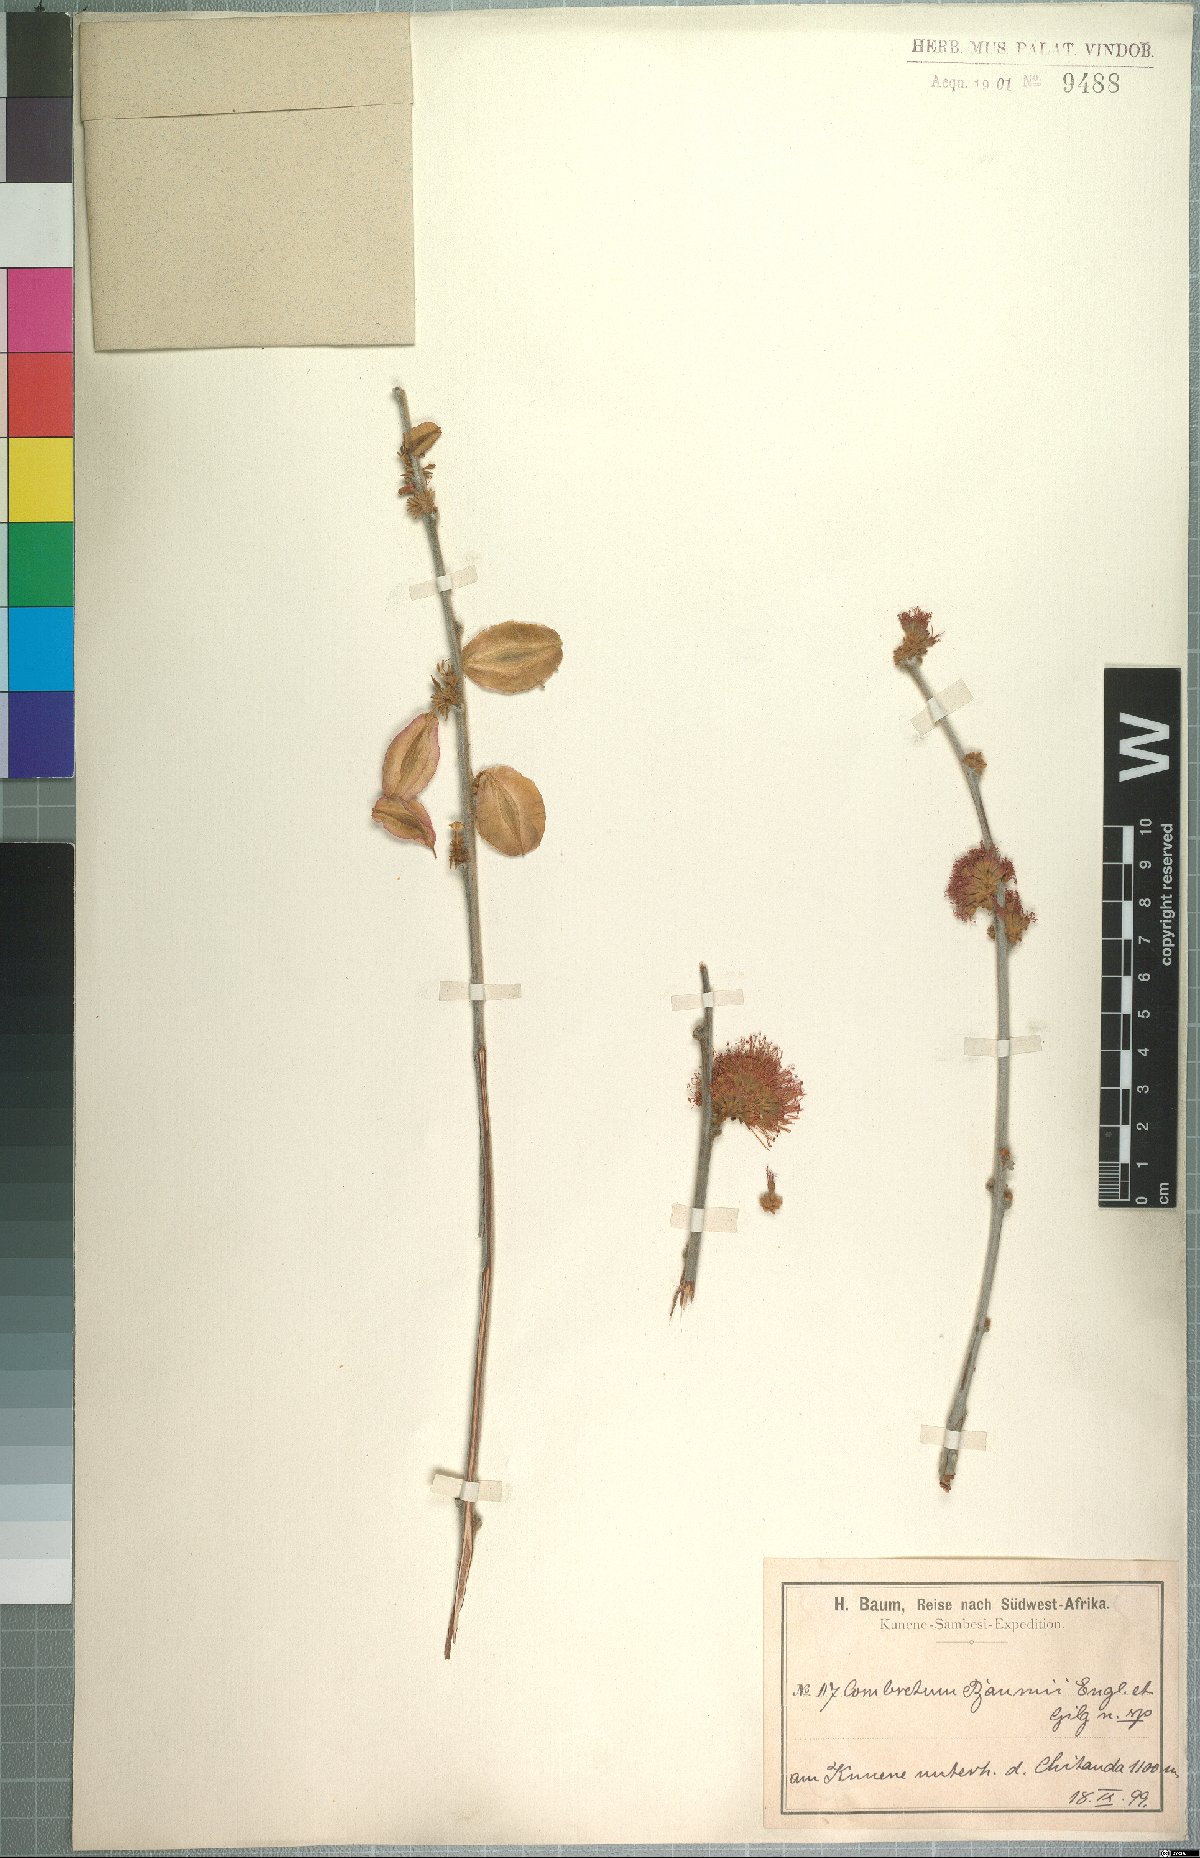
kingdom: Plantae
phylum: Tracheophyta
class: Magnoliopsida
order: Myrtales
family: Combretaceae
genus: Combretum
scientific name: Combretum baumii
